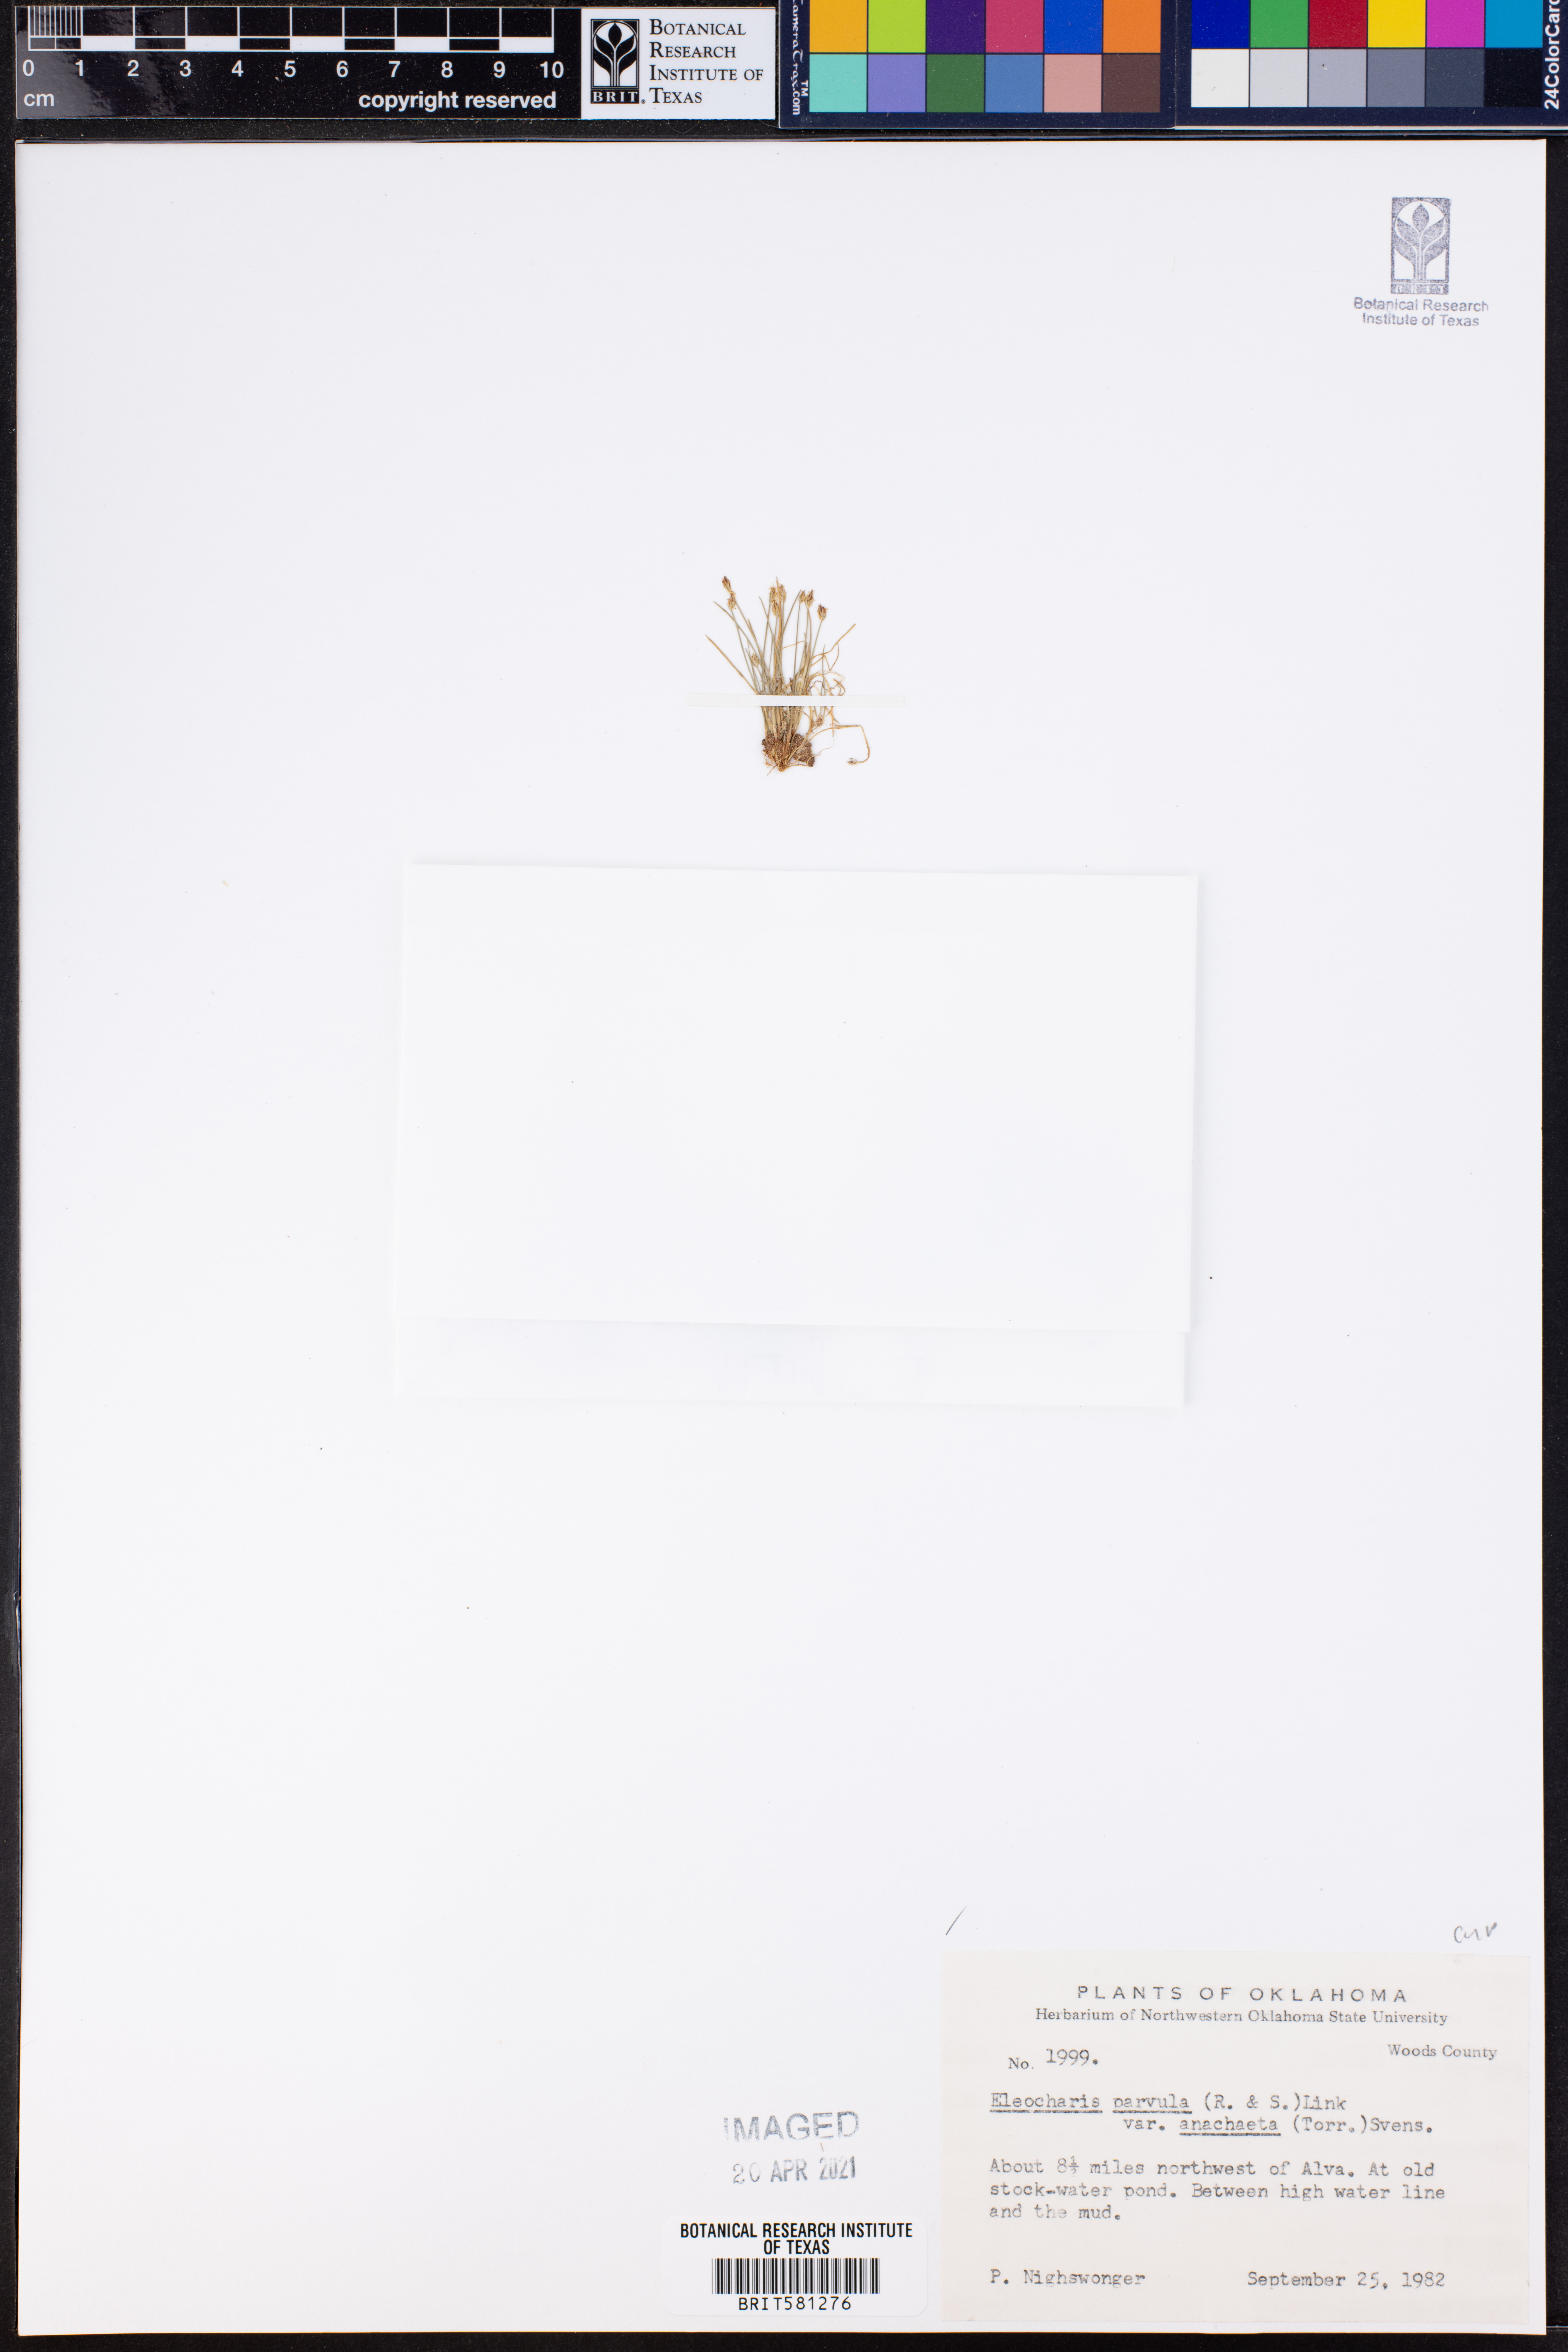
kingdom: Plantae
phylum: Tracheophyta
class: Liliopsida
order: Poales
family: Cyperaceae
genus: Eleocharis
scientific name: Eleocharis coloradoensis
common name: Colorado spikerush
